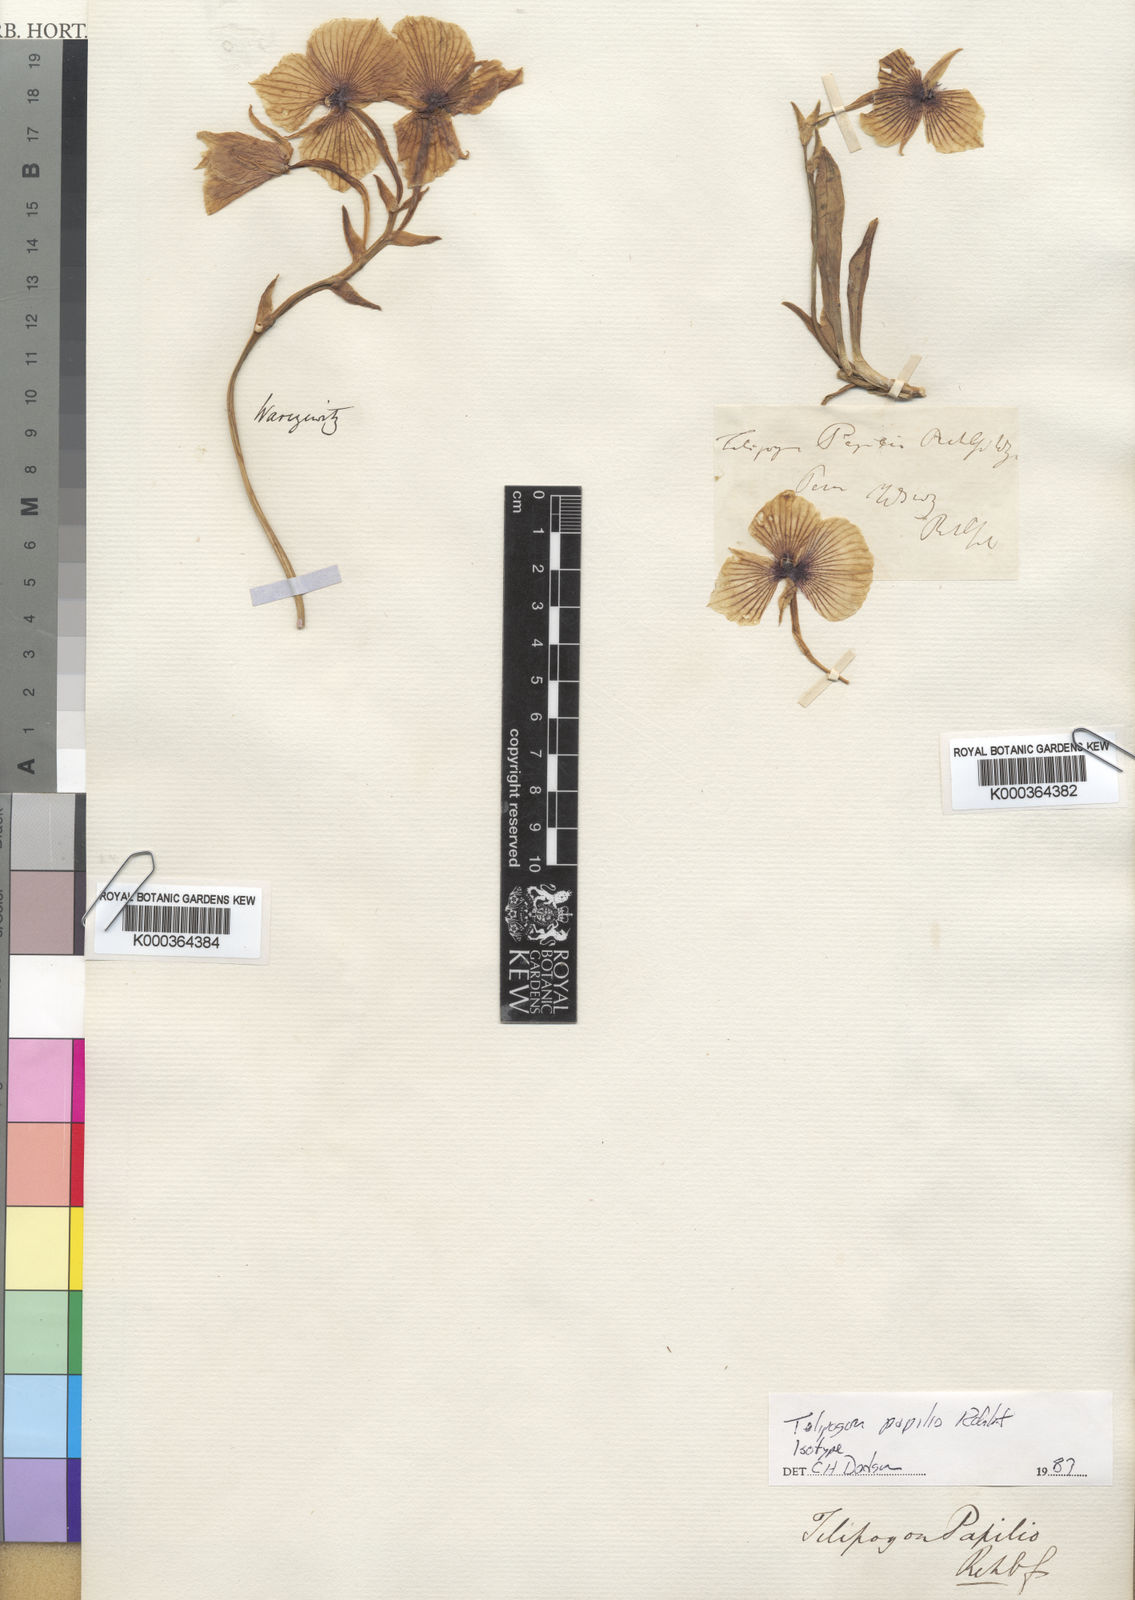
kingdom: Plantae
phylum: Tracheophyta
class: Liliopsida
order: Asparagales
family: Orchidaceae
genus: Telipogon
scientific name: Telipogon papilio
